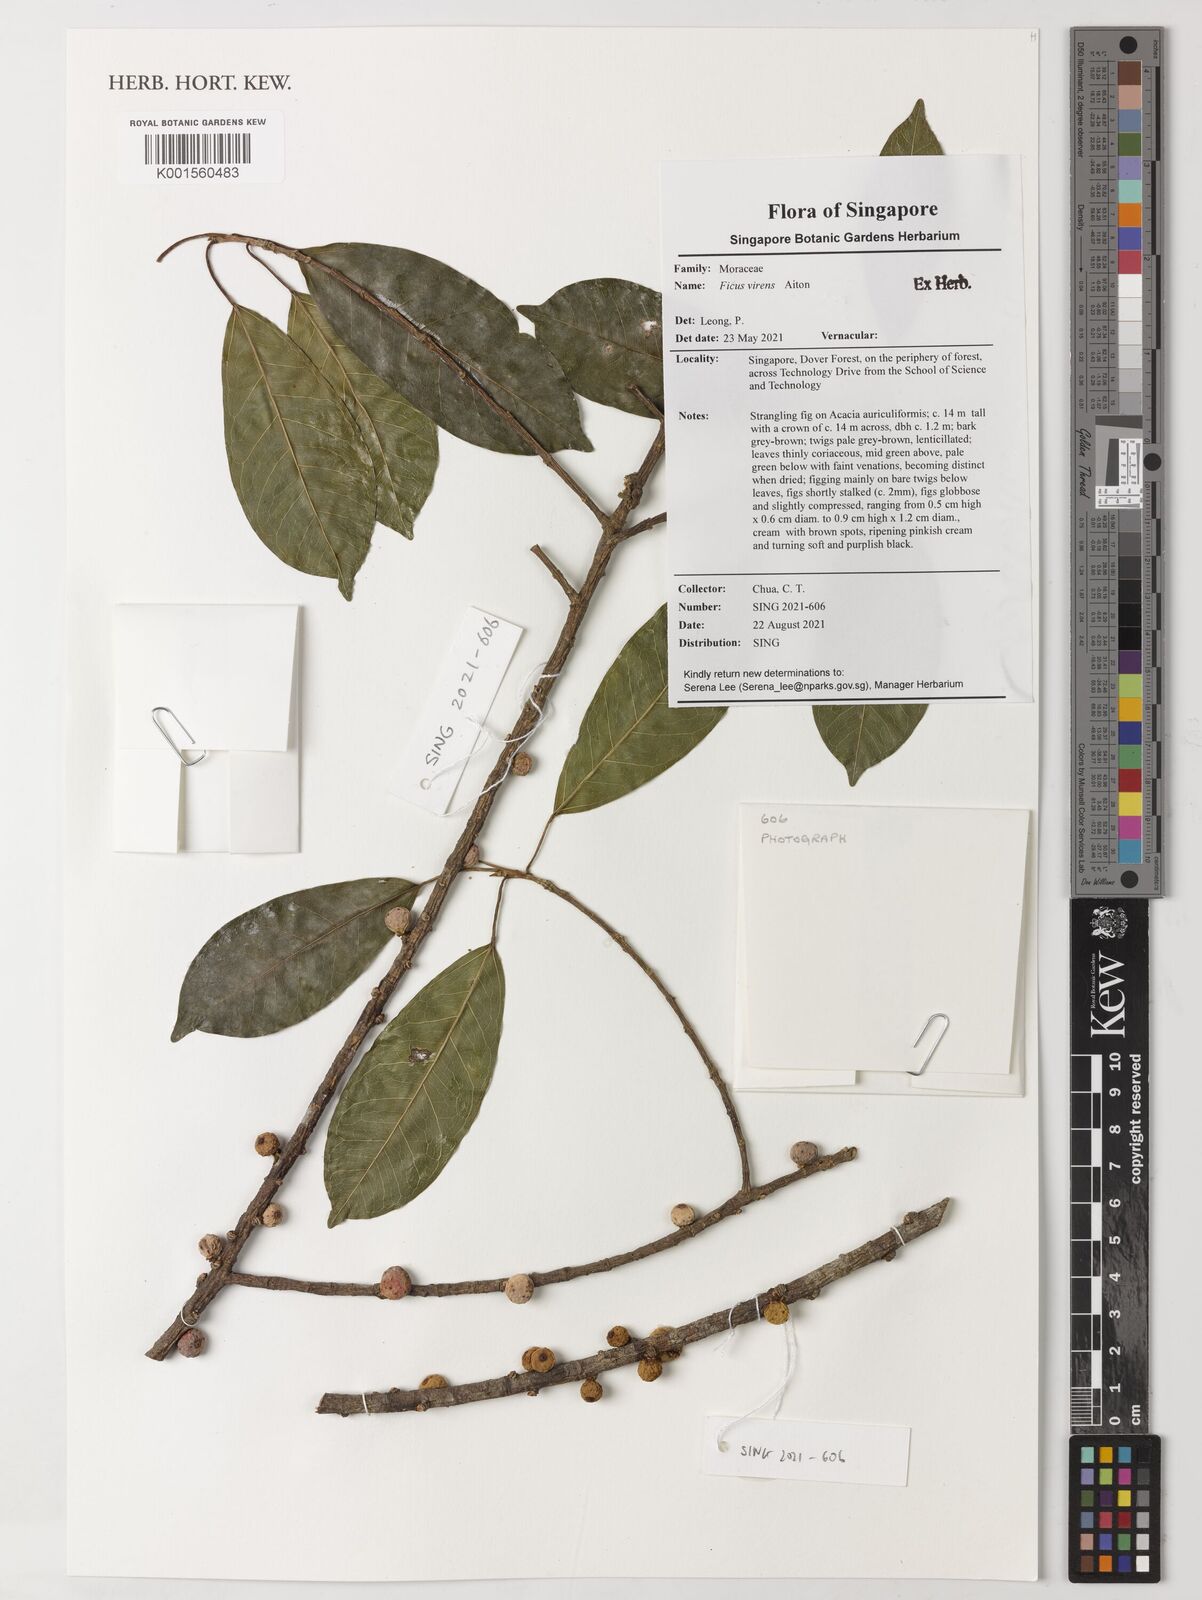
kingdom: Plantae
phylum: Tracheophyta
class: Magnoliopsida
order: Rosales
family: Moraceae
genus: Ficus
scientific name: Ficus virens
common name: Spotted fig
